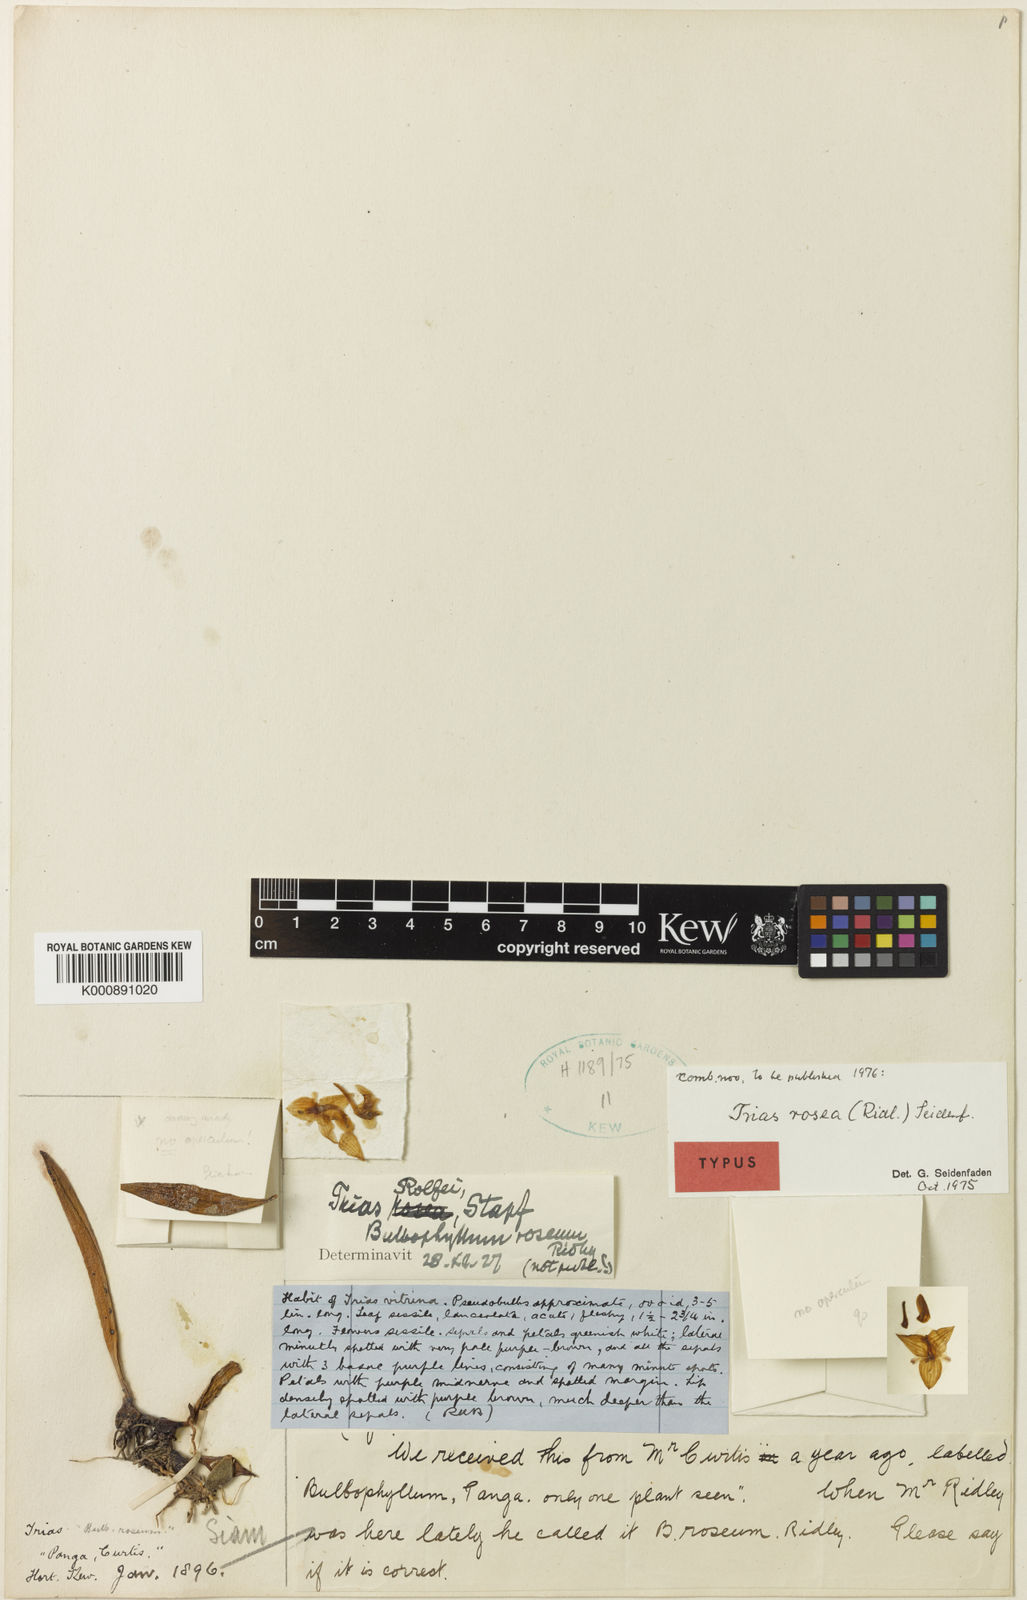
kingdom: Plantae
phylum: Tracheophyta
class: Liliopsida
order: Asparagales
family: Orchidaceae
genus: Bulbophyllum
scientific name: Bulbophyllum roseum
